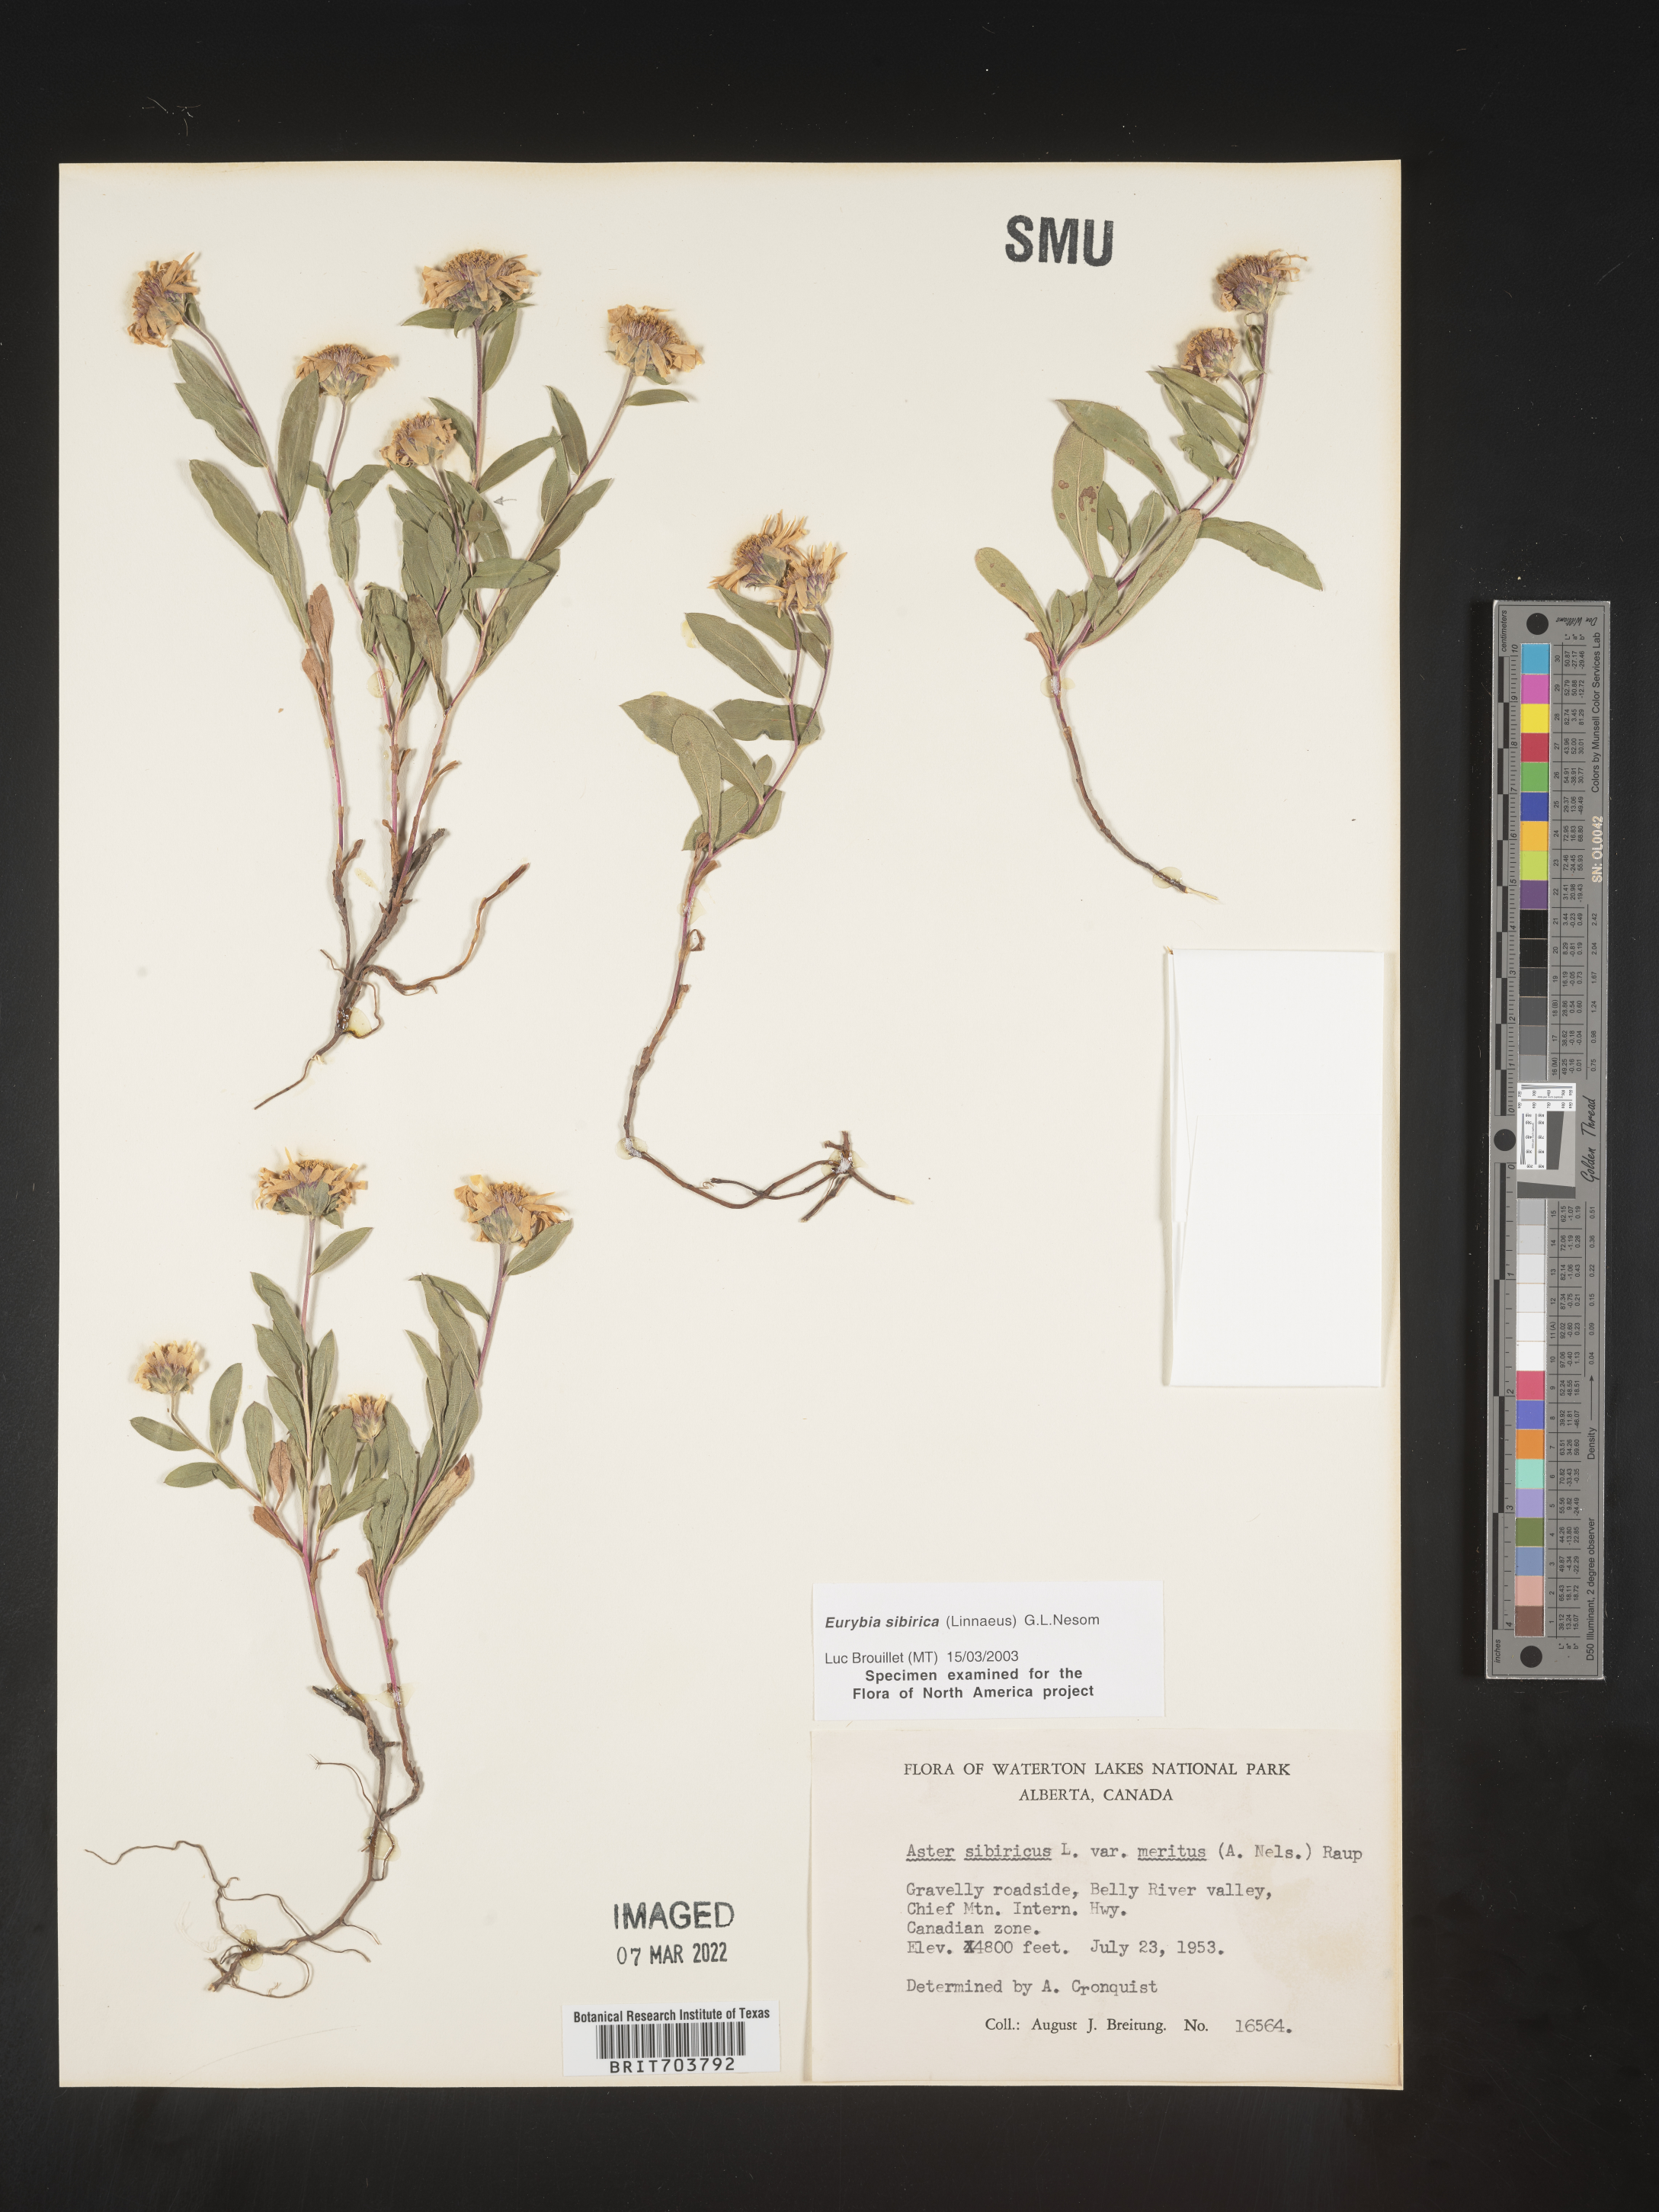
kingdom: Plantae
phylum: Tracheophyta
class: Magnoliopsida
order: Asterales
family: Asteraceae
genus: Eurybia
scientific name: Eurybia sibirica
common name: Arctic aster
